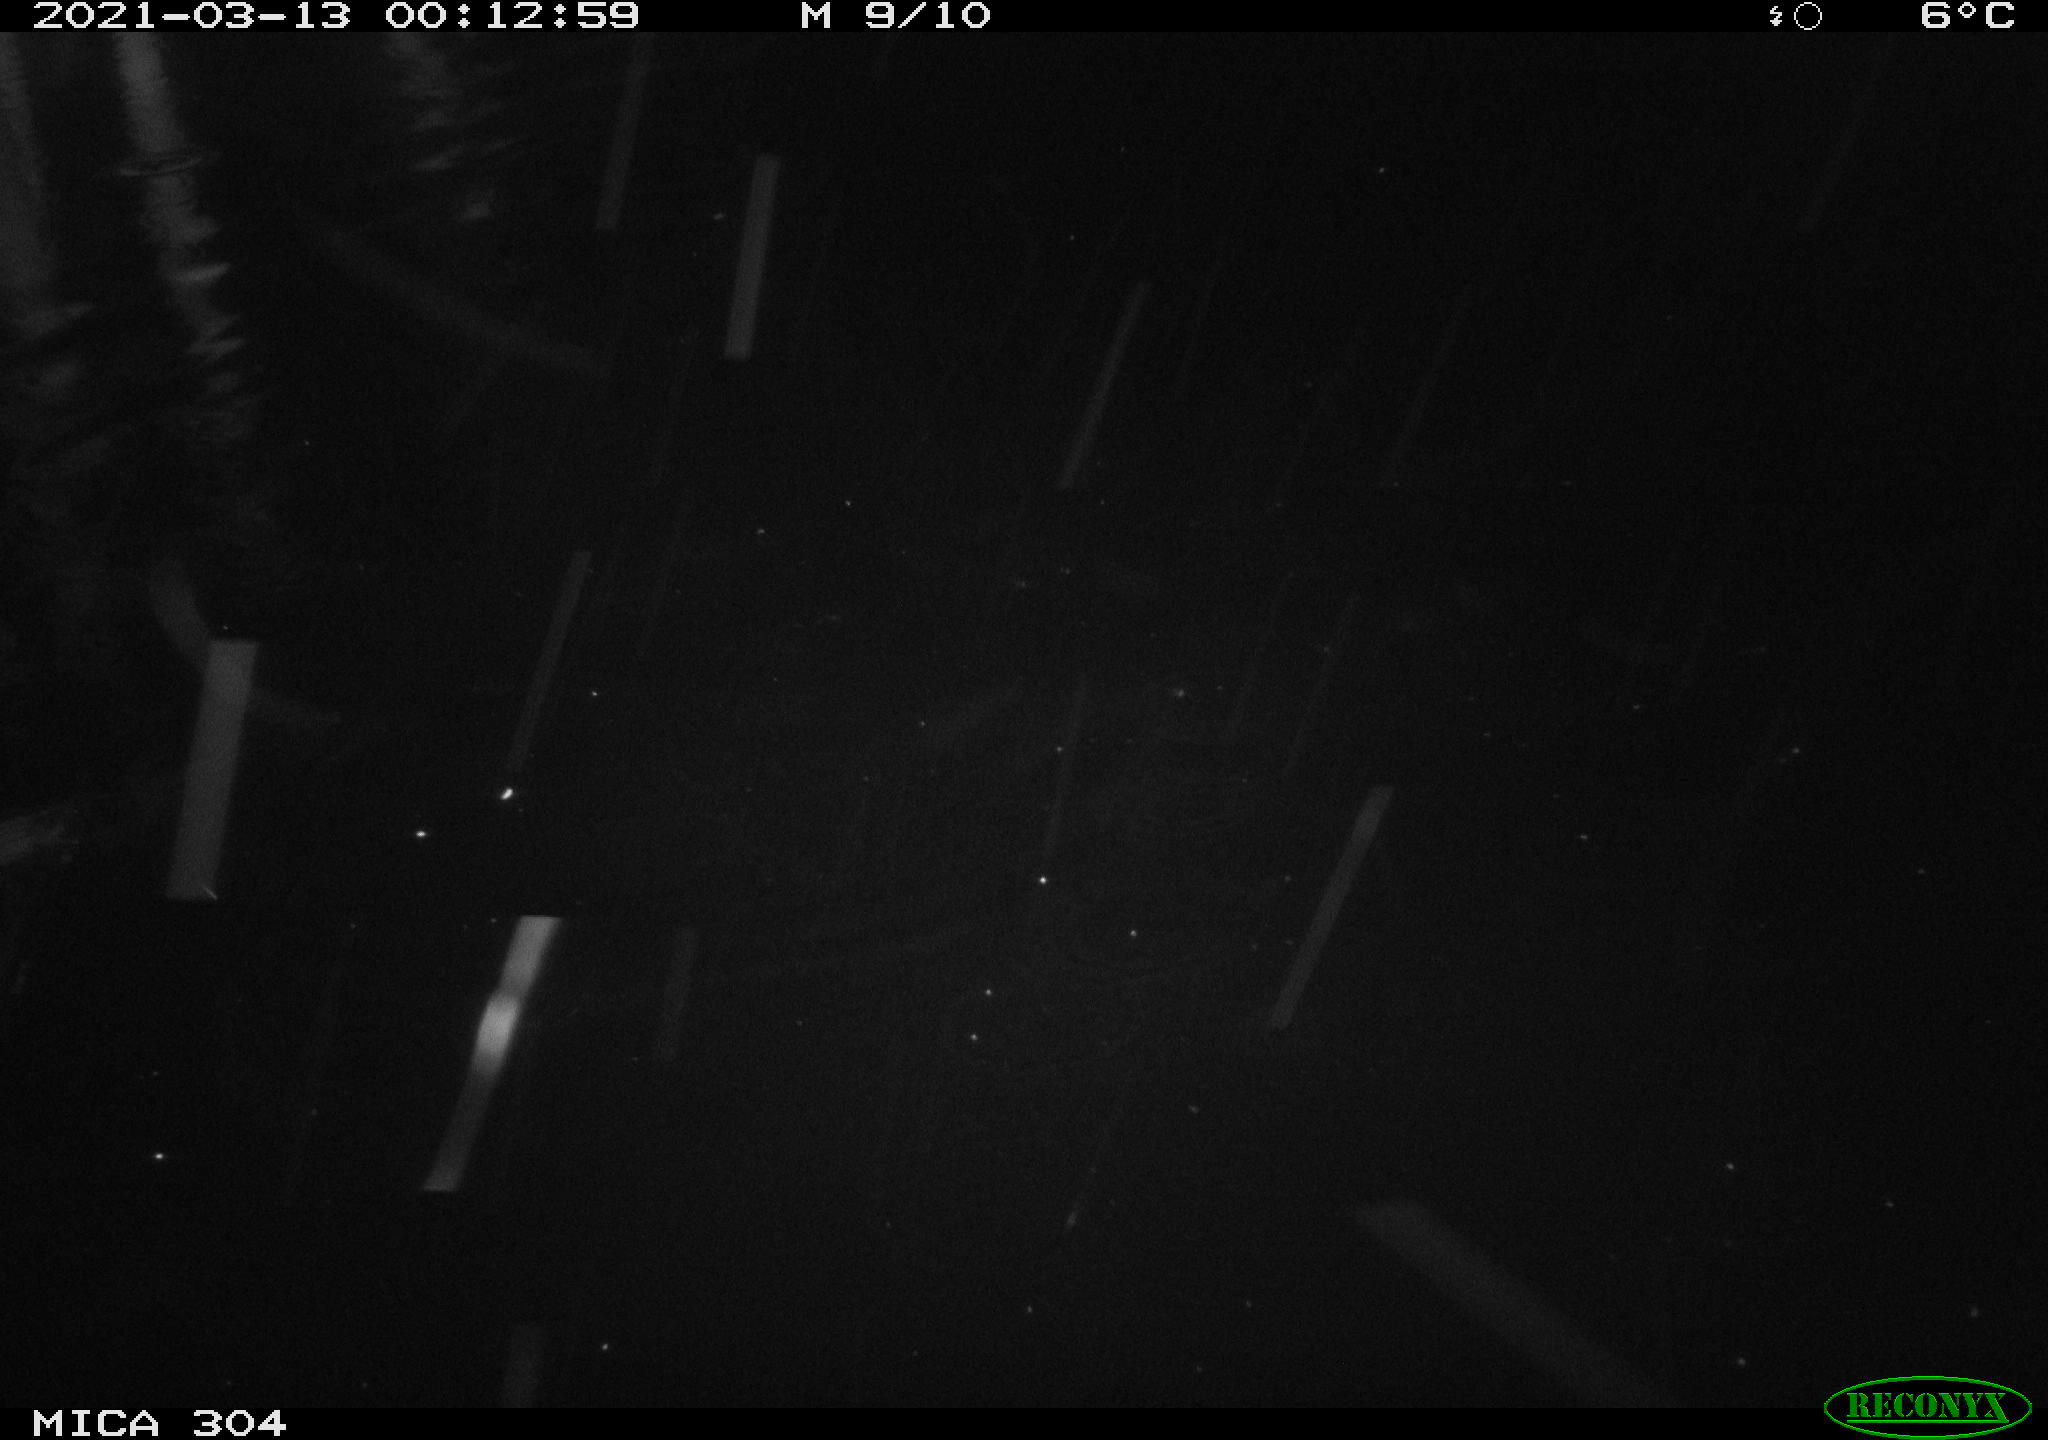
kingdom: Animalia
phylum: Chordata
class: Aves
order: Anseriformes
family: Anatidae
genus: Anas
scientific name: Anas platyrhynchos
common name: Mallard
